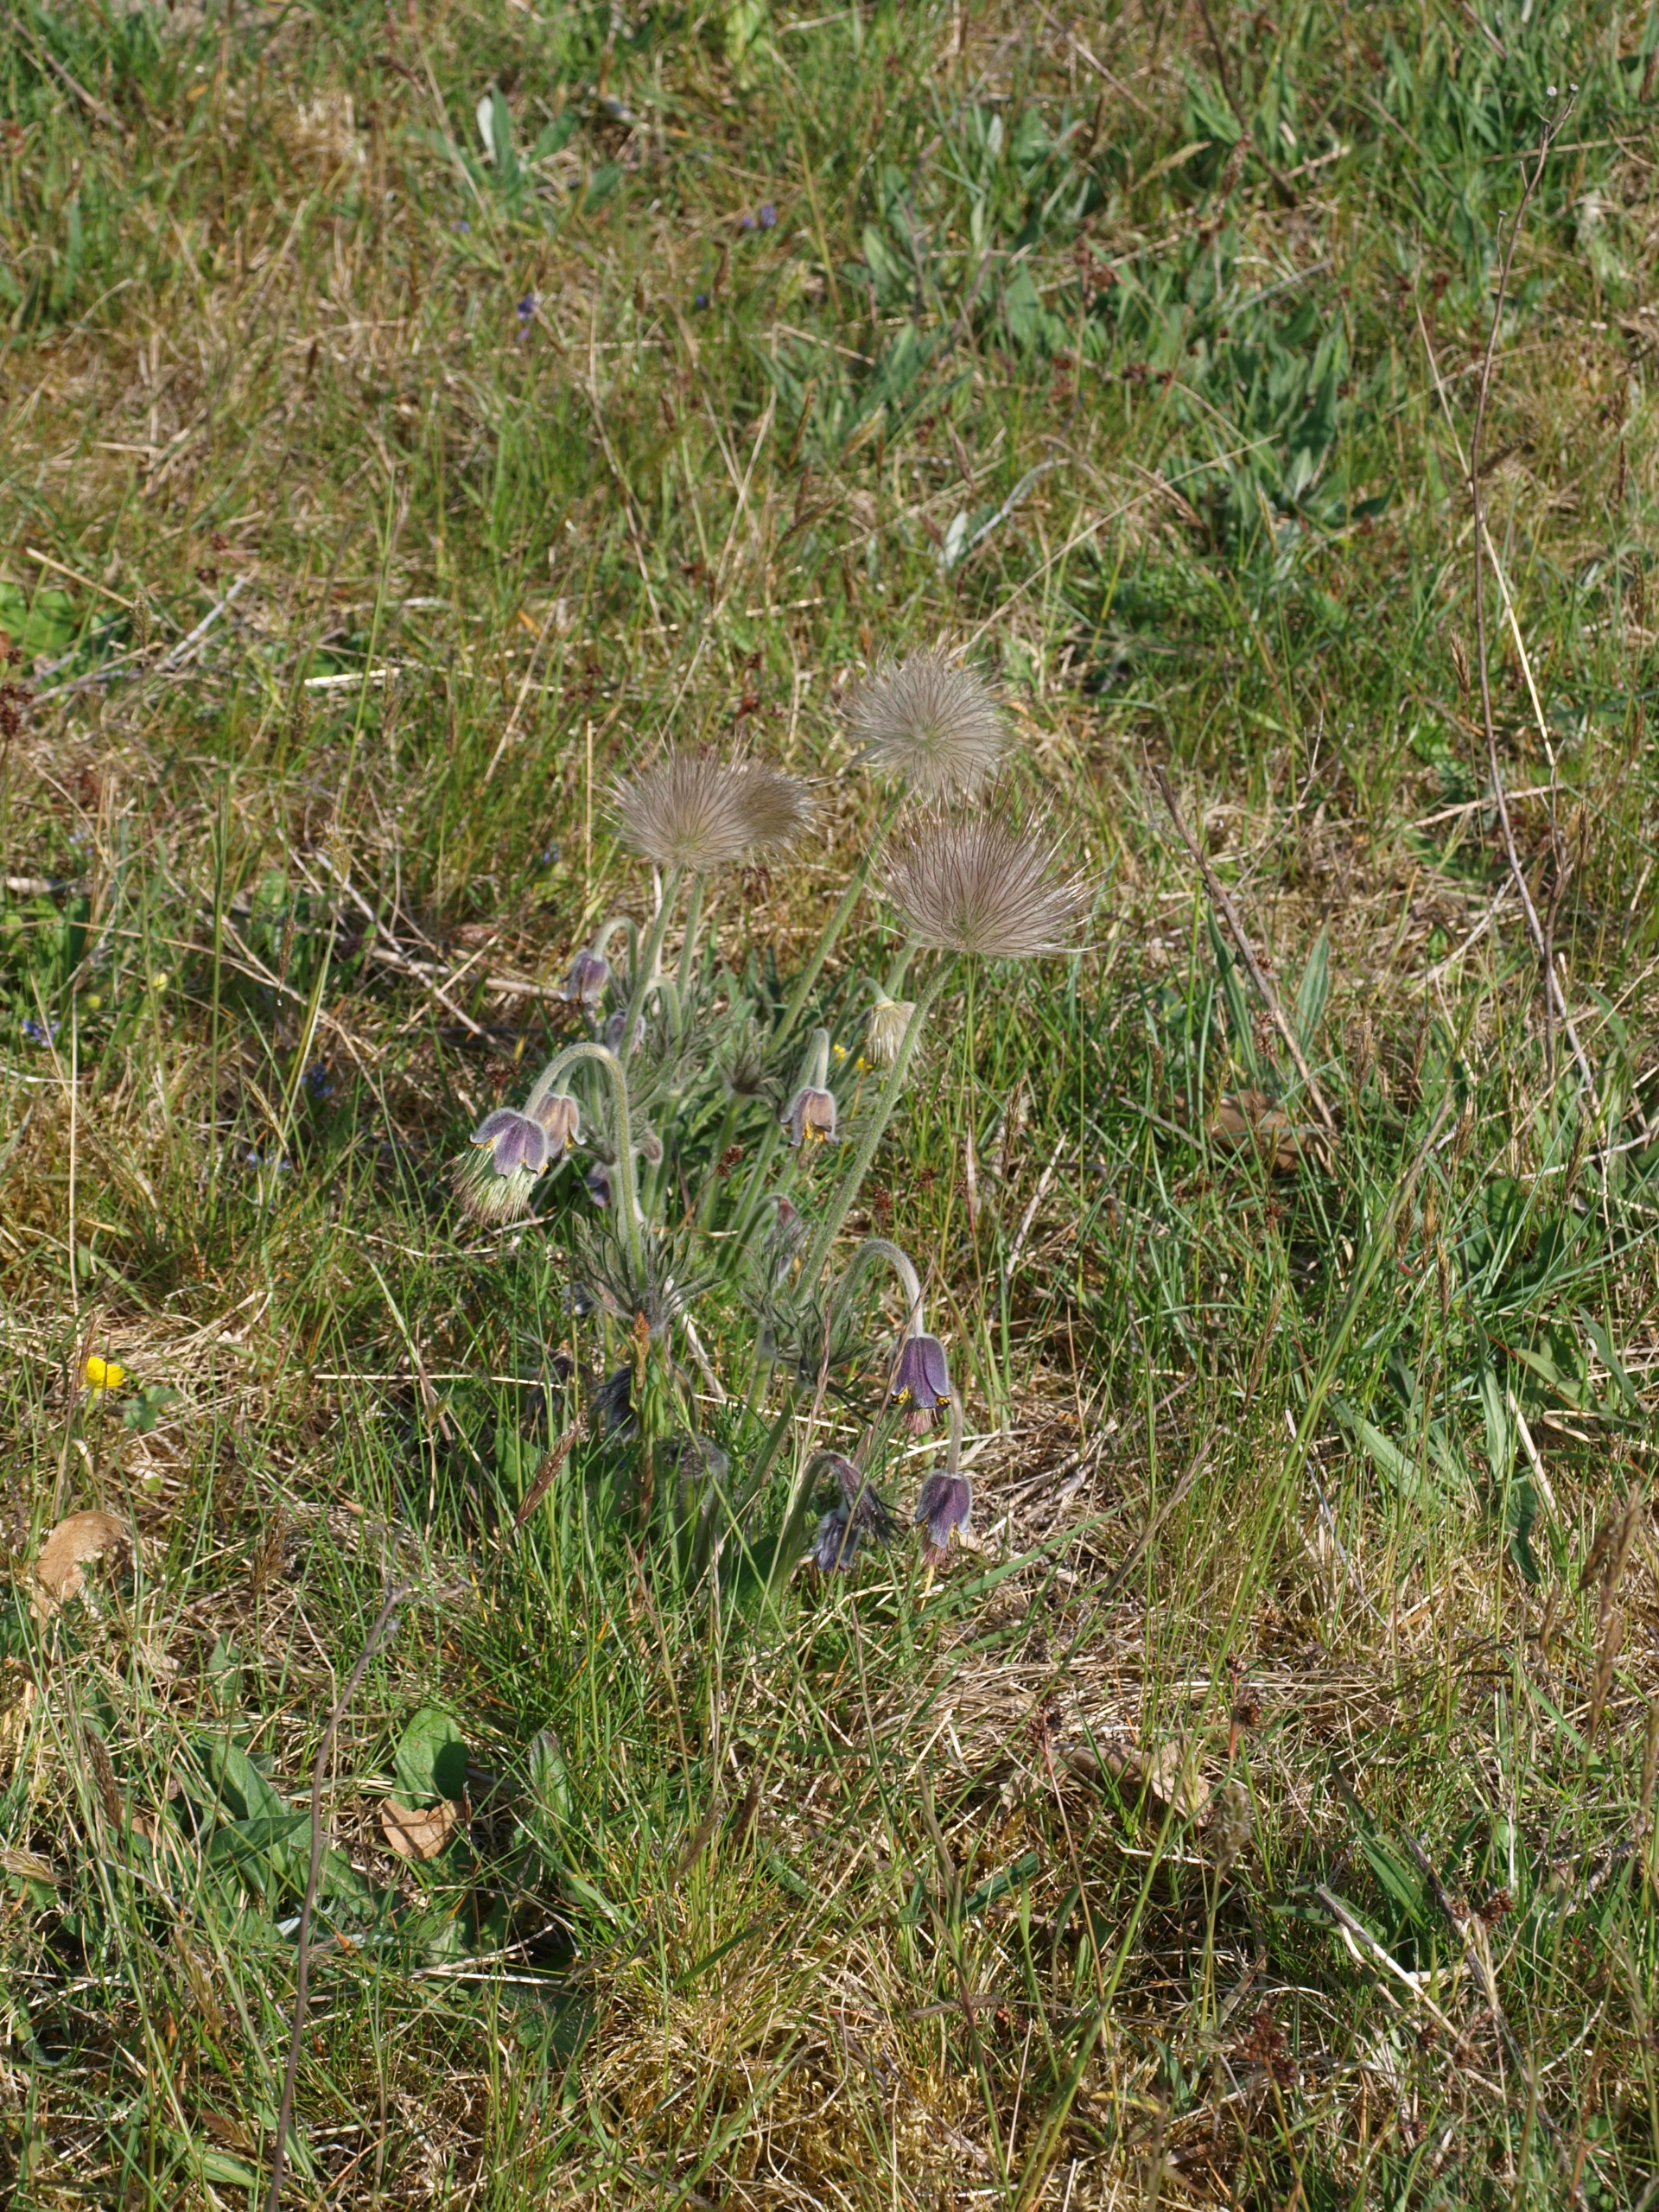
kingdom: Plantae
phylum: Tracheophyta
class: Magnoliopsida
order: Ranunculales
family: Ranunculaceae
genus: Pulsatilla
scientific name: Pulsatilla pratensis
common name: Nikkende kobjælde
